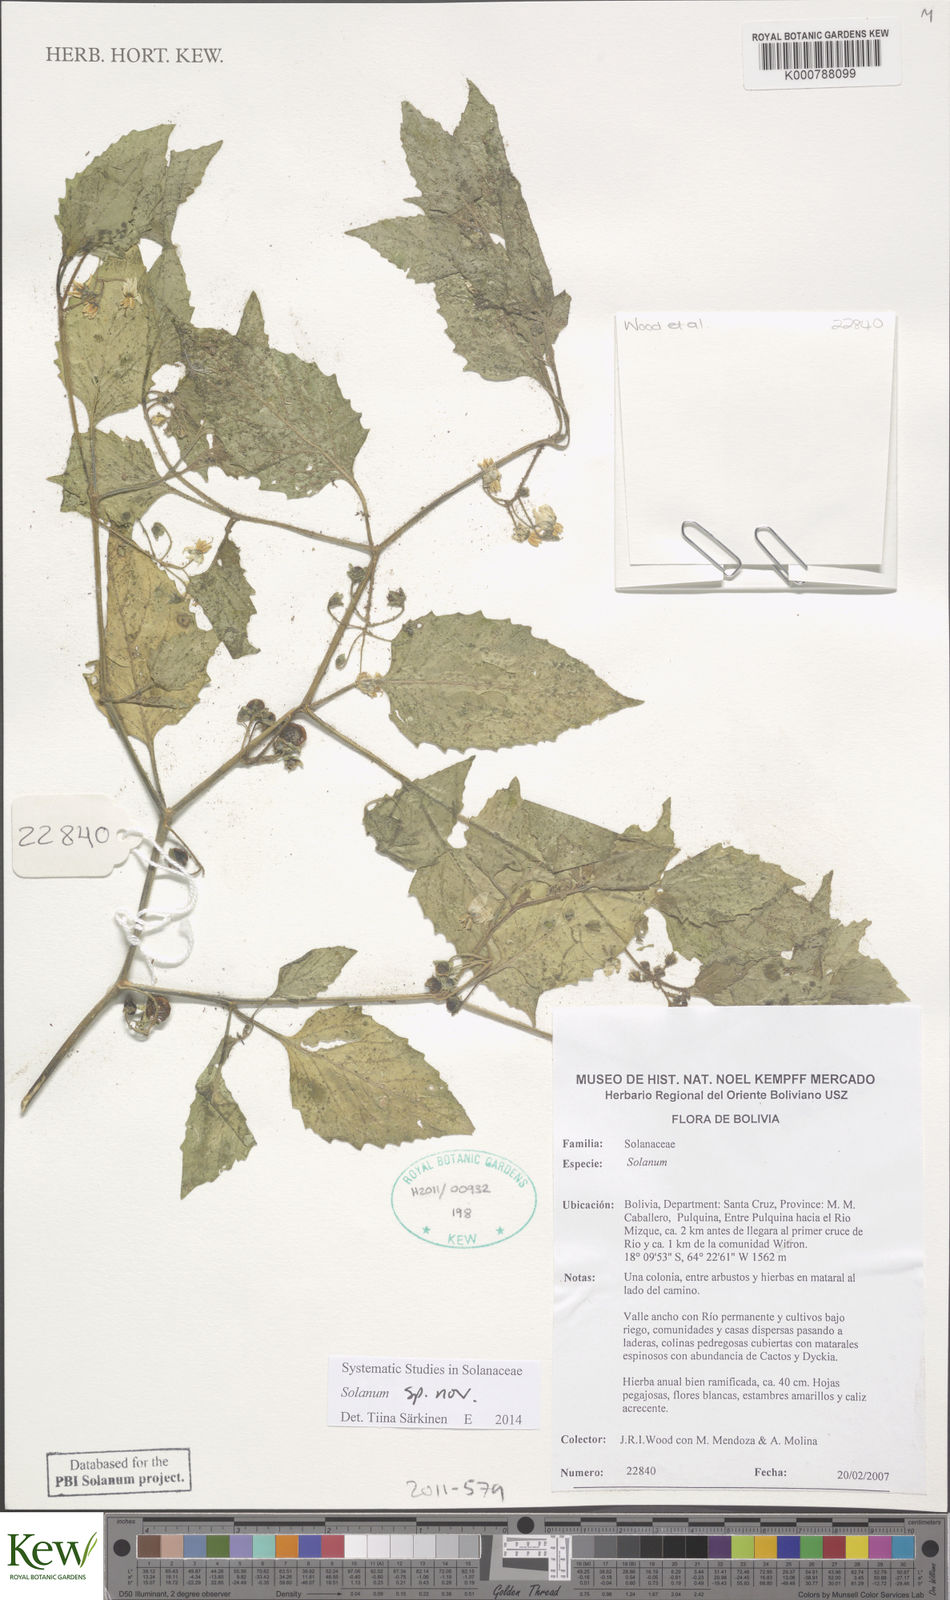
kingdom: Plantae
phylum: Tracheophyta
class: Magnoliopsida
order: Solanales
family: Solanaceae
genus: Solanum
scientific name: Solanum
